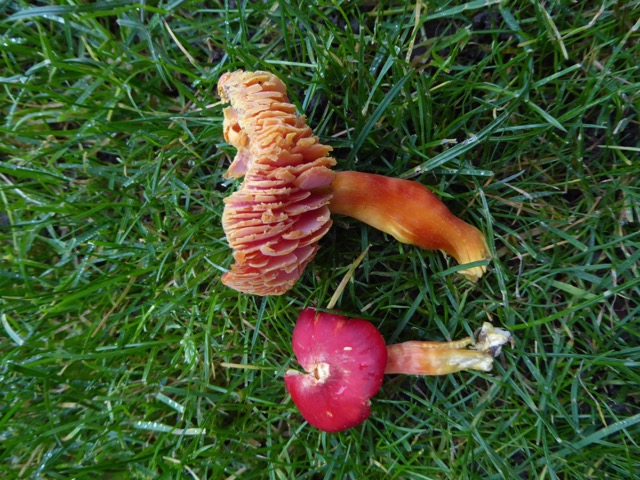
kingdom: Fungi
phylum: Basidiomycota
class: Agaricomycetes
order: Agaricales
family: Hygrophoraceae
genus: Hygrocybe
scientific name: Hygrocybe punicea
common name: skarlagen-vokshat
